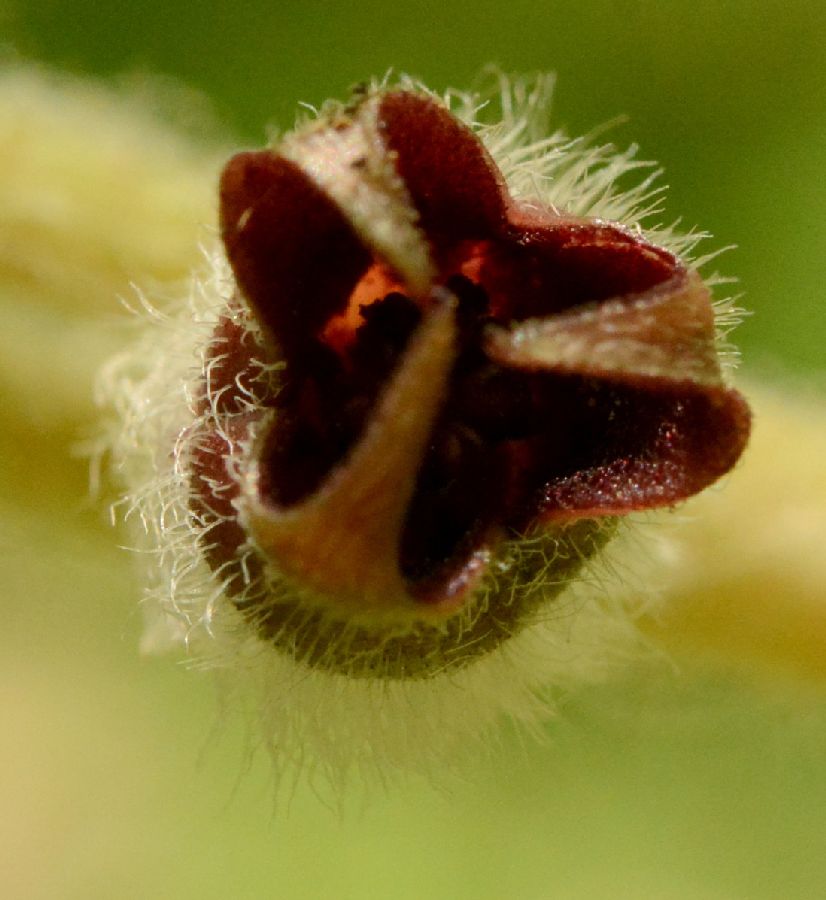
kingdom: Plantae
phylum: Tracheophyta
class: Magnoliopsida
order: Piperales
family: Aristolochiaceae
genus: Asarum
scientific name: Asarum europaeum
